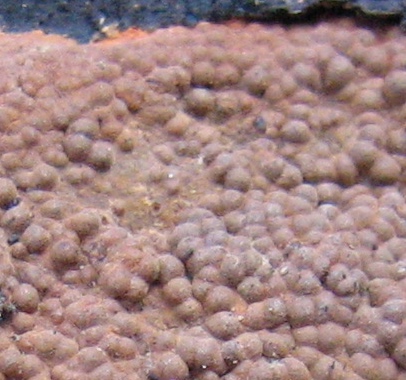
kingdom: Fungi
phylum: Ascomycota
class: Sordariomycetes
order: Xylariales
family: Hypoxylaceae
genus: Hypoxylon
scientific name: Hypoxylon rubiginosum
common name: rustfarvet kulbær
